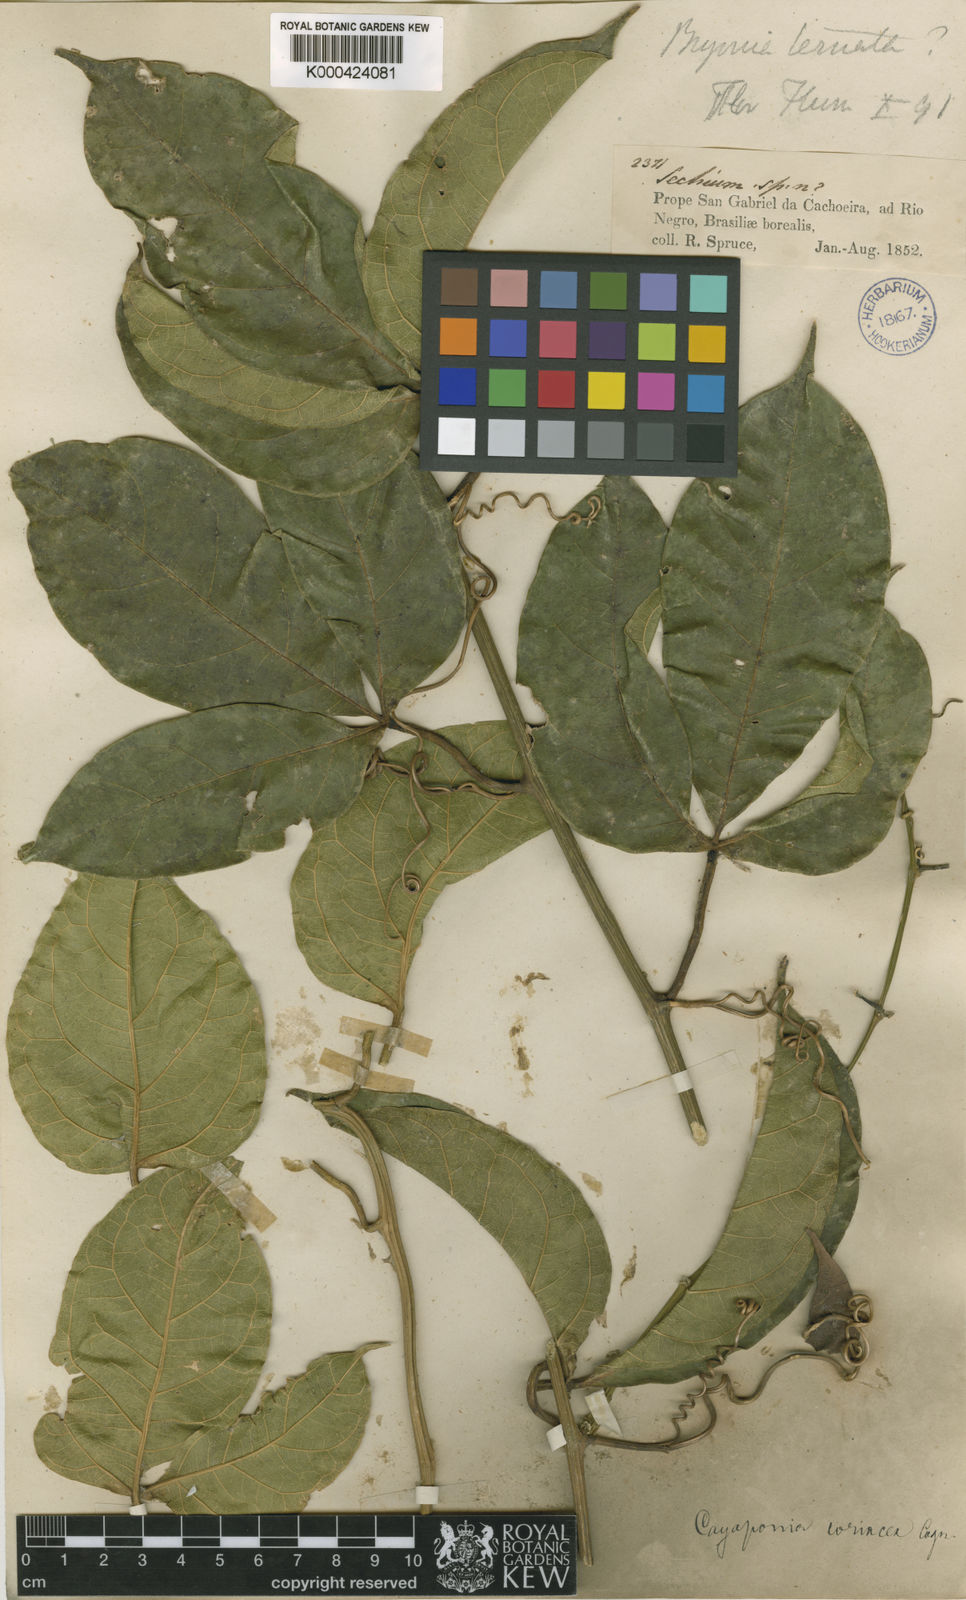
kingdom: Plantae
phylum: Tracheophyta
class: Magnoliopsida
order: Cucurbitales
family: Cucurbitaceae
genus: Cayaponia
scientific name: Cayaponia coriacea
